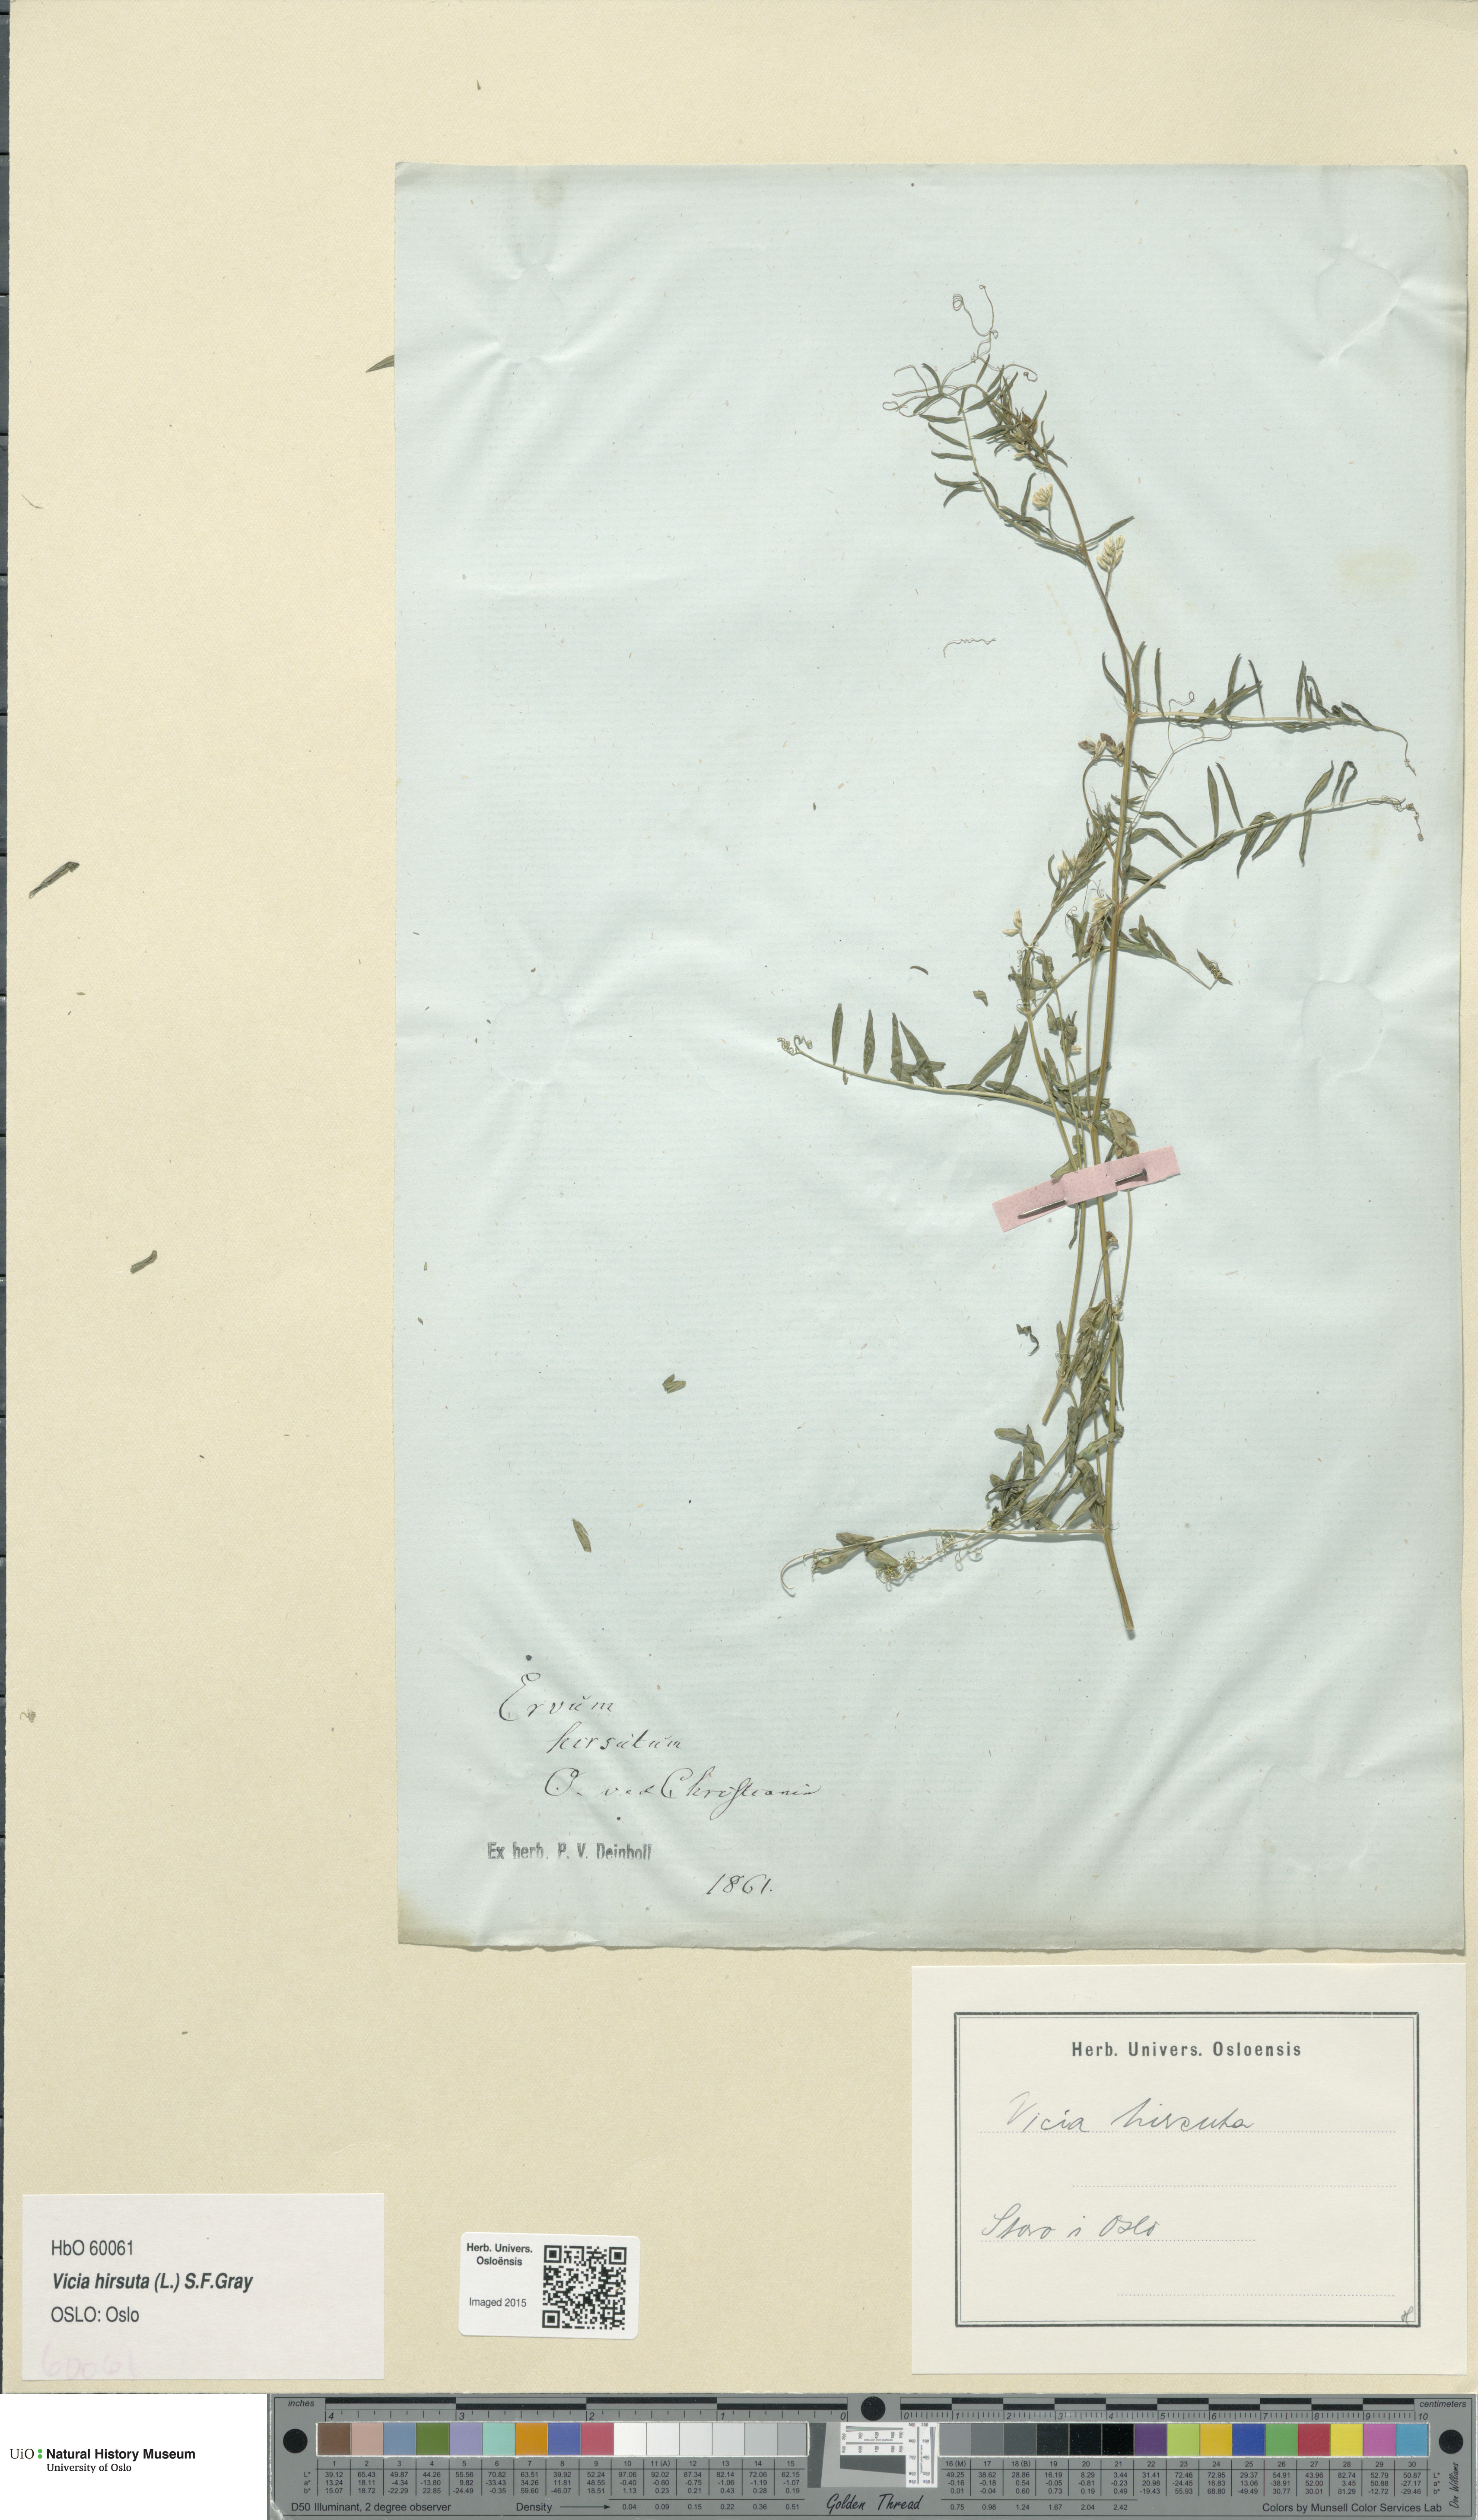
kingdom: Plantae
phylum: Tracheophyta
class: Magnoliopsida
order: Fabales
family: Fabaceae
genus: Vicia
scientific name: Vicia hirsuta
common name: Tiny vetch
